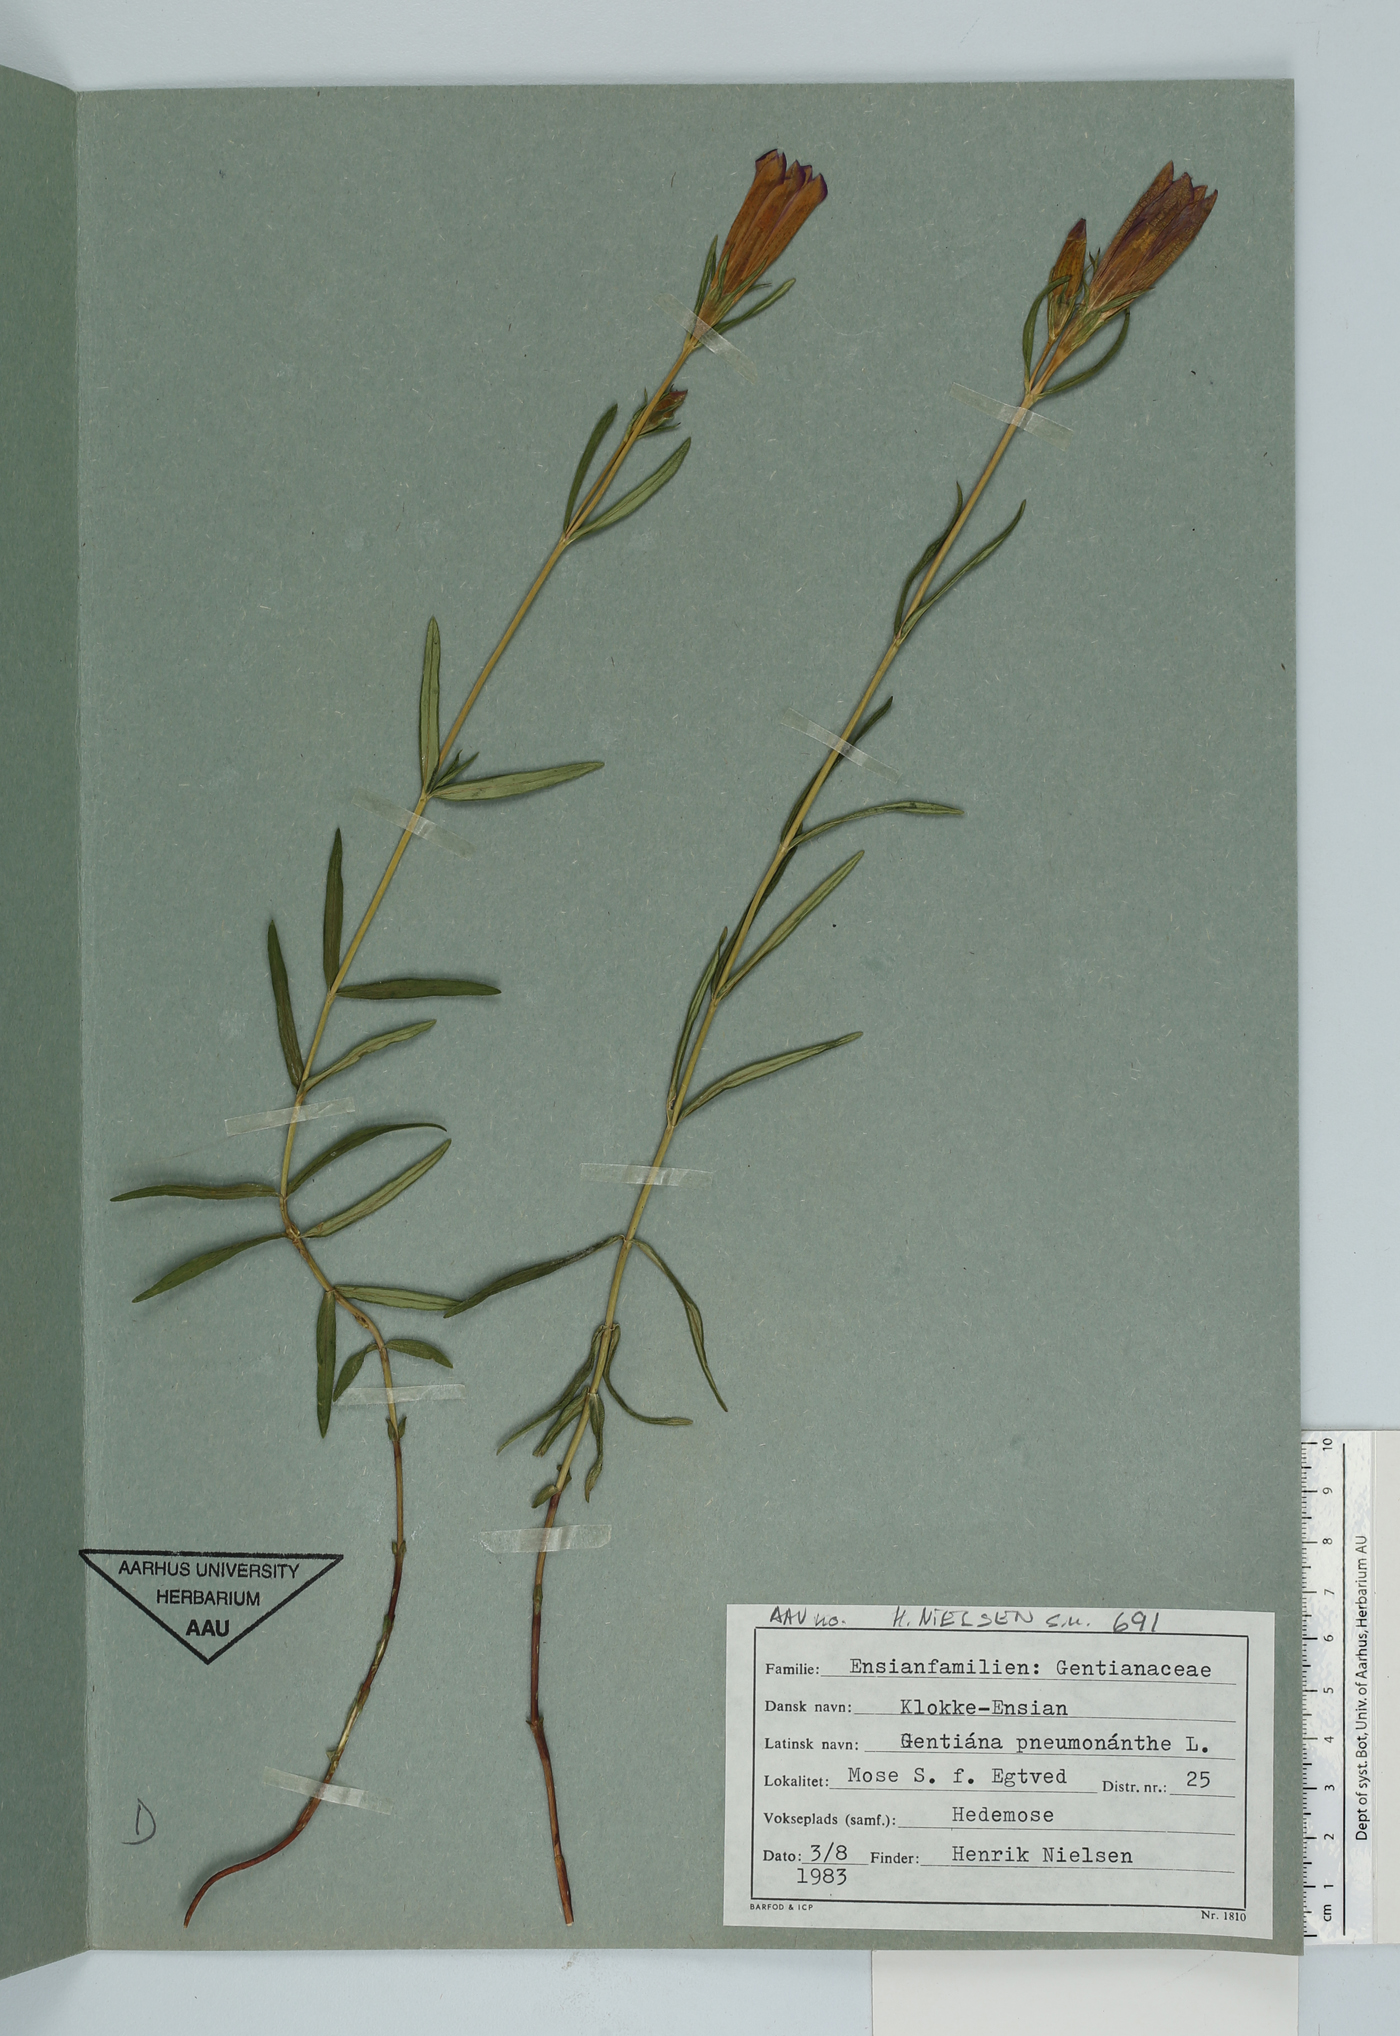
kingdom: Plantae
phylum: Tracheophyta
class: Magnoliopsida
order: Gentianales
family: Gentianaceae
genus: Gentiana
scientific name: Gentiana pneumonanthe
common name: Marsh gentian
